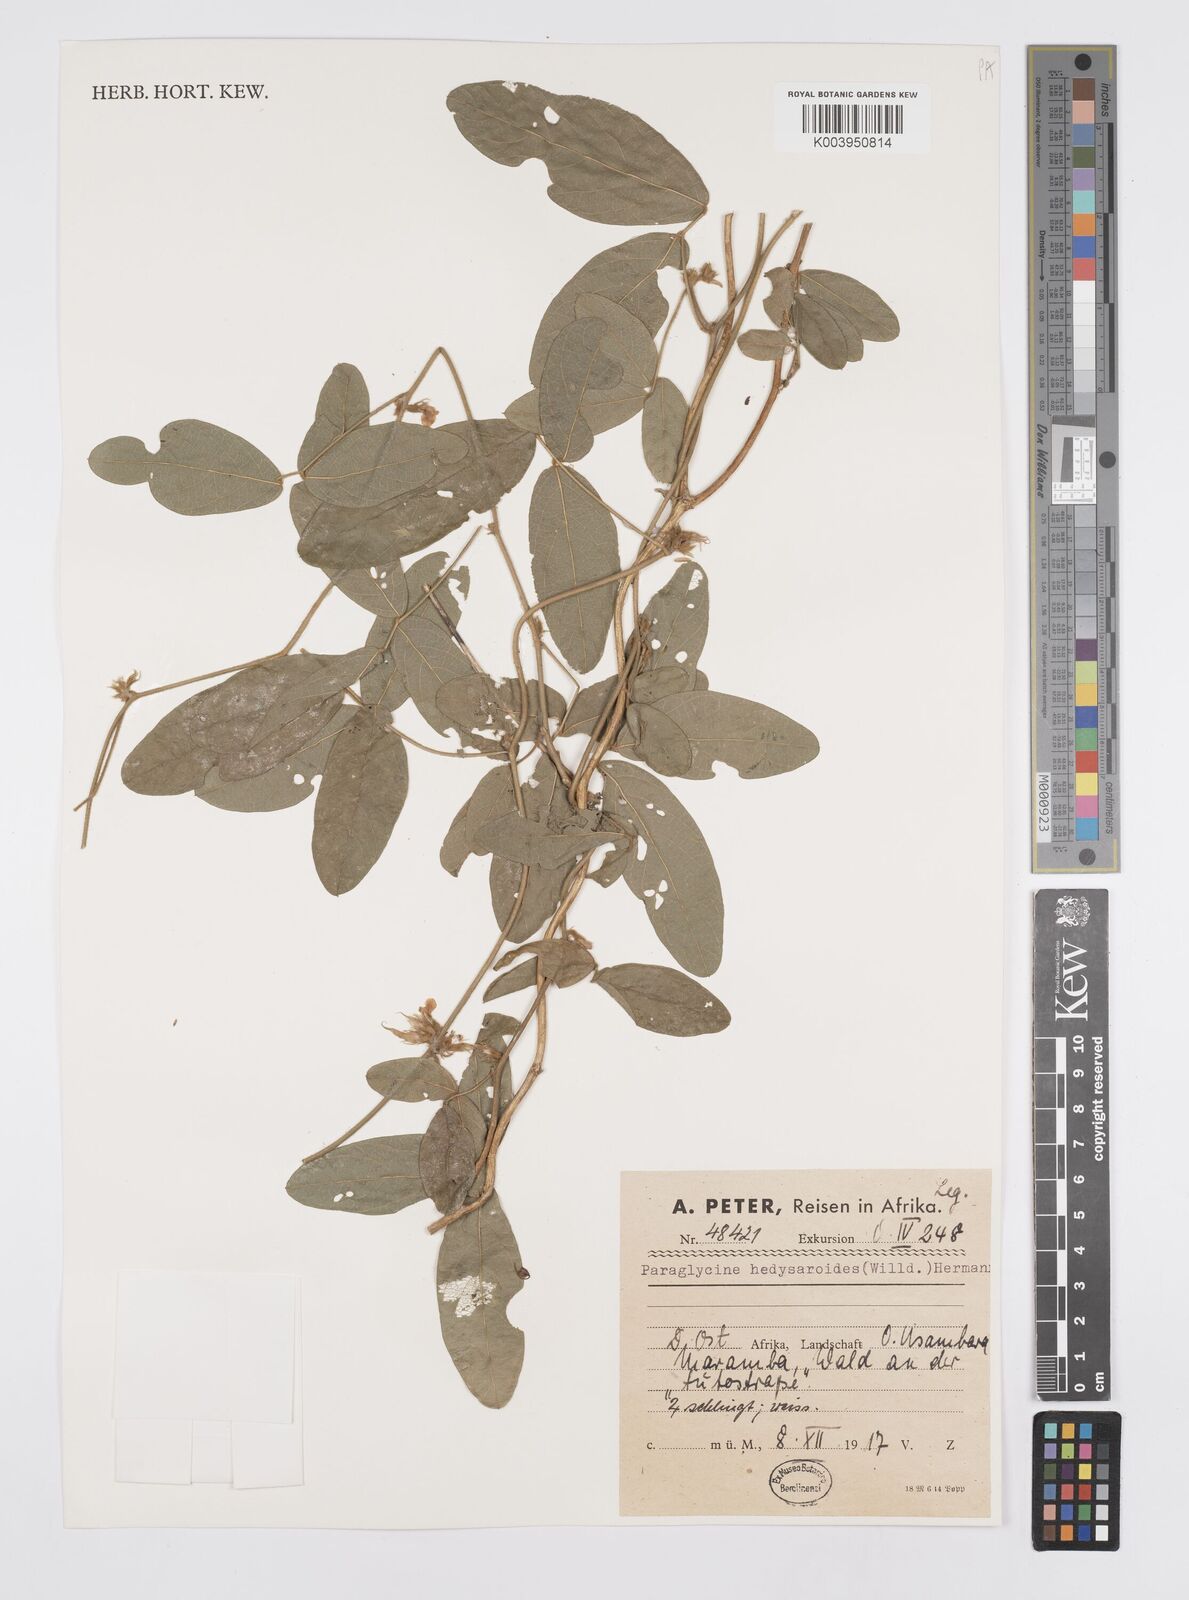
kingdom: Plantae
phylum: Tracheophyta
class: Magnoliopsida
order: Fabales
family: Fabaceae
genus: Ophrestia
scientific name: Ophrestia hedysaroides
